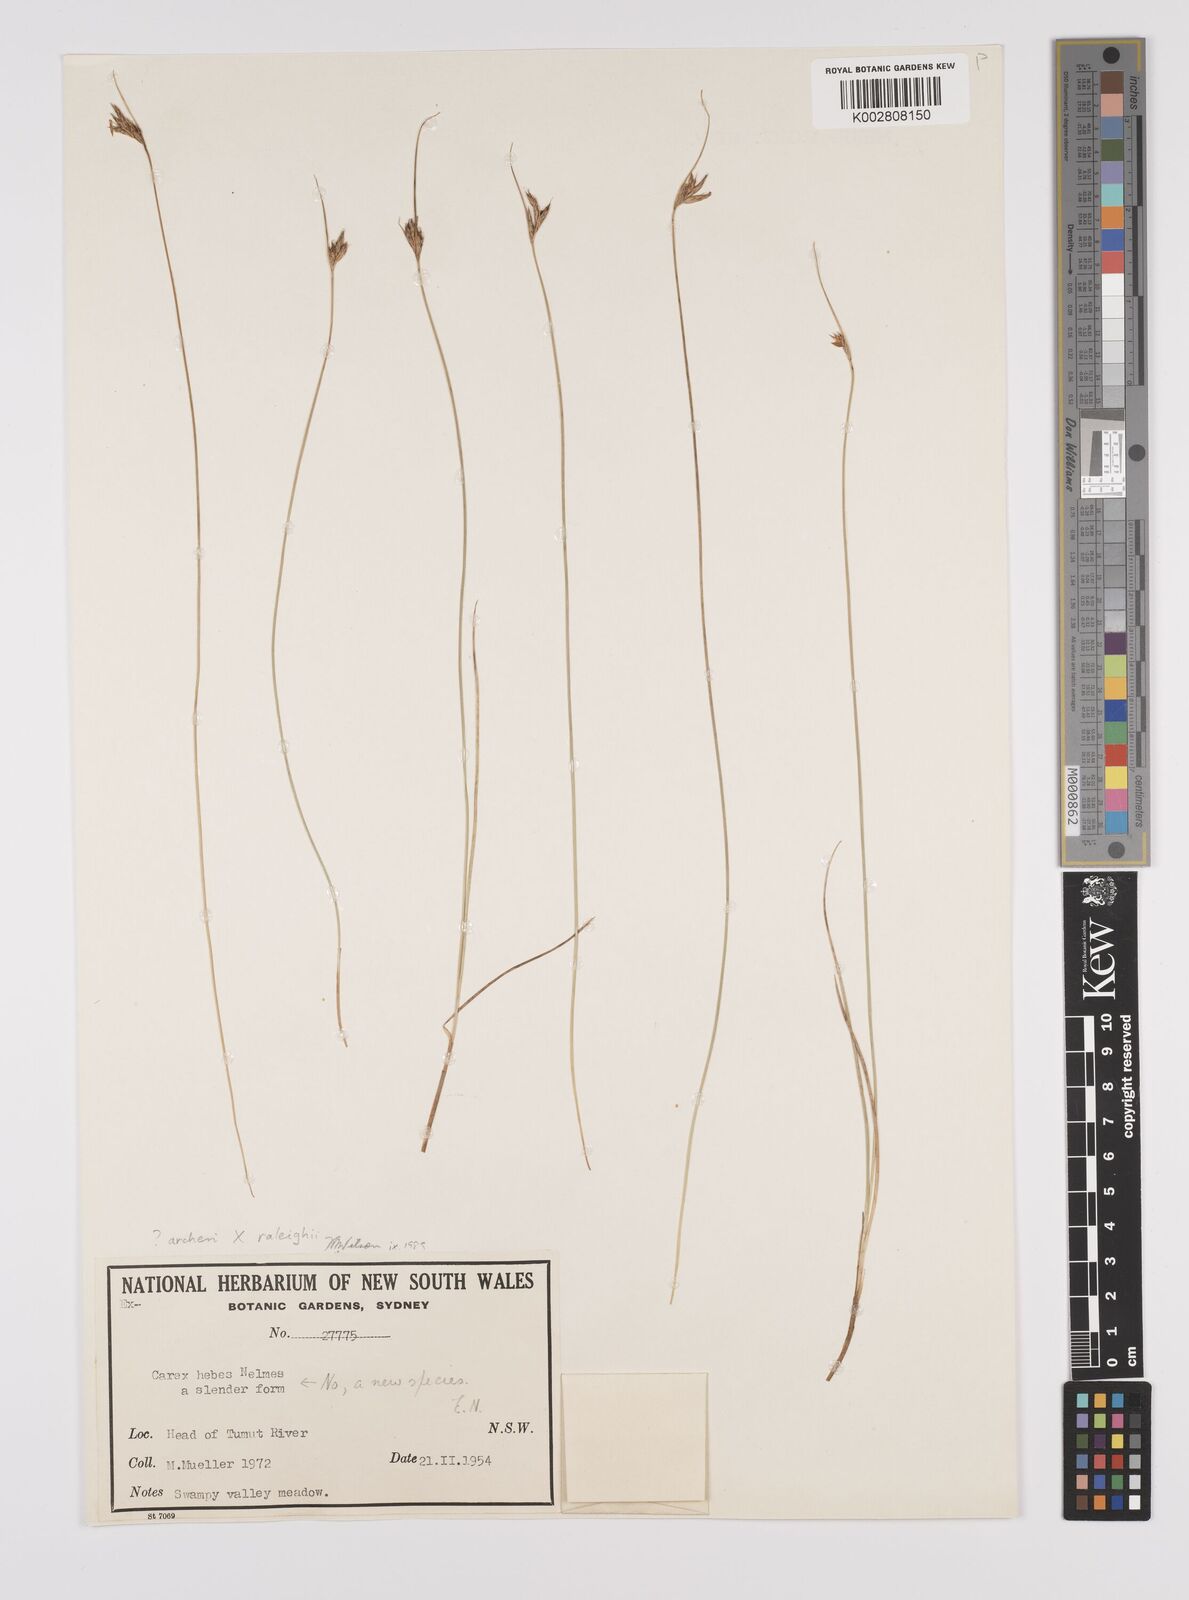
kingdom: Plantae
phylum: Tracheophyta
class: Liliopsida
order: Poales
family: Cyperaceae
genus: Carex
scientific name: Carex archeri
